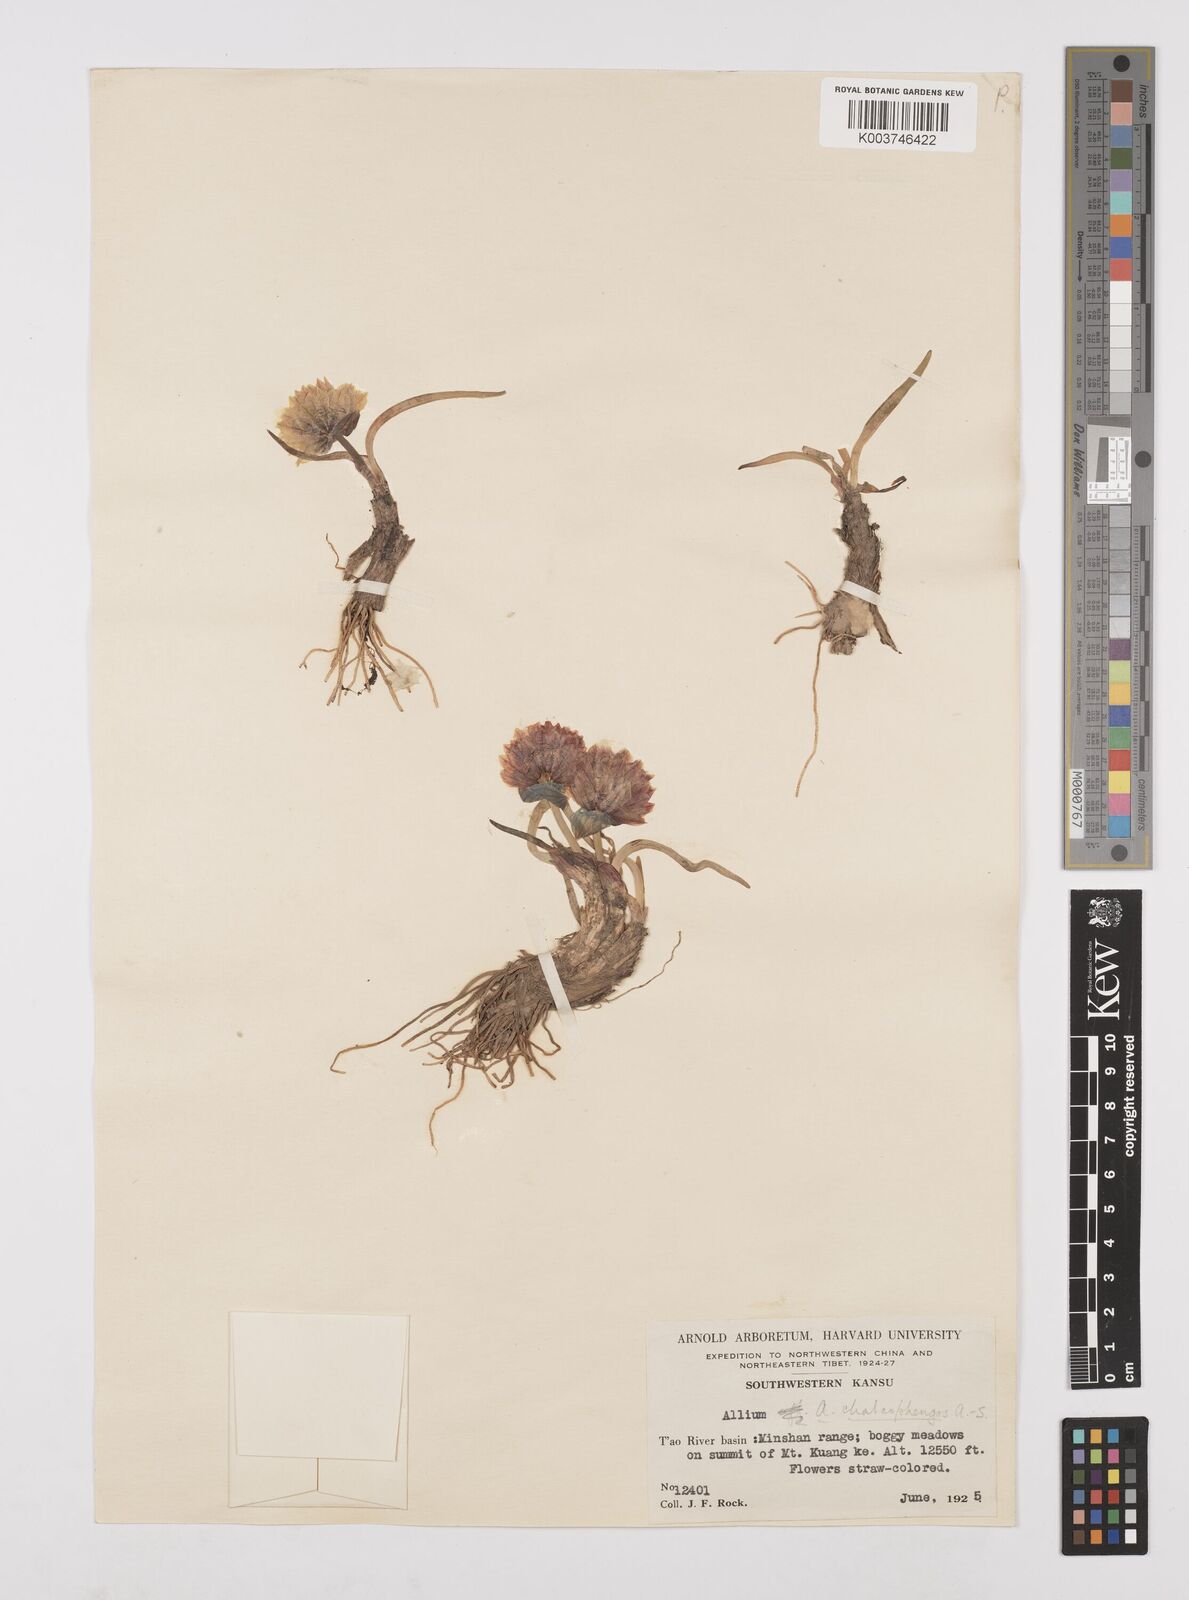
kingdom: Plantae
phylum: Tracheophyta
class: Liliopsida
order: Asparagales
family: Amaryllidaceae
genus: Allium
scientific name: Allium atrosanguineum
